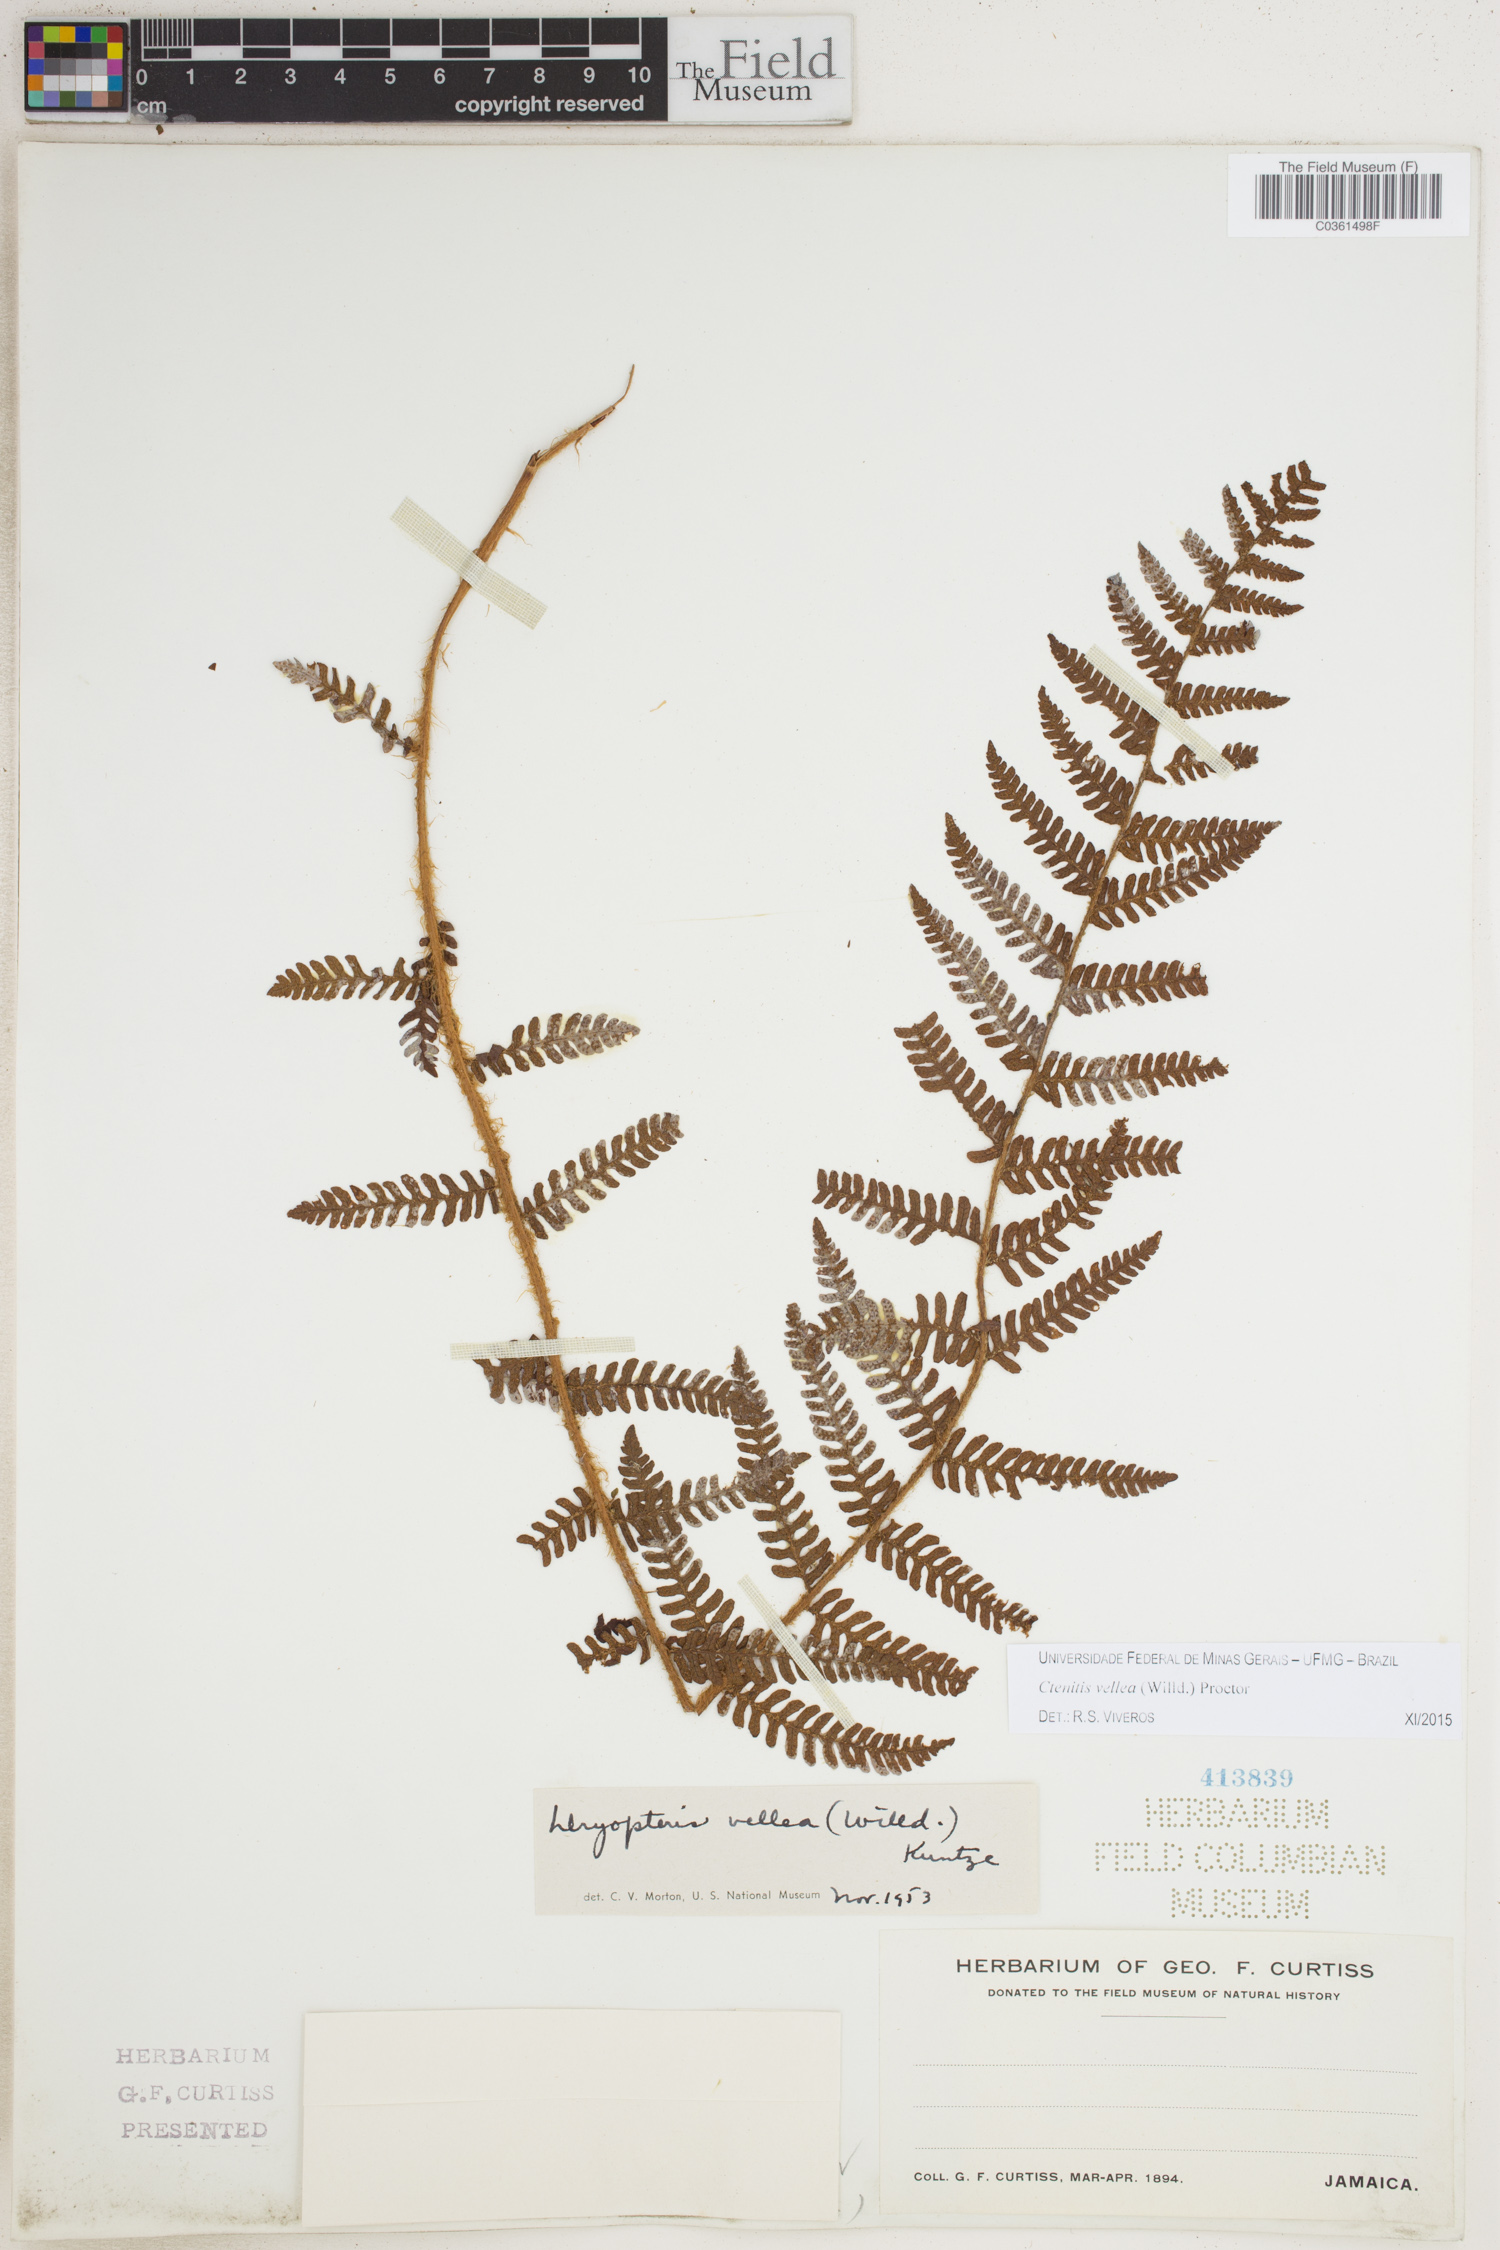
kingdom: Plantae
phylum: Tracheophyta
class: Polypodiopsida
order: Polypodiales
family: Dryopteridaceae
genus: Ctenitis
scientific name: Ctenitis vellea
